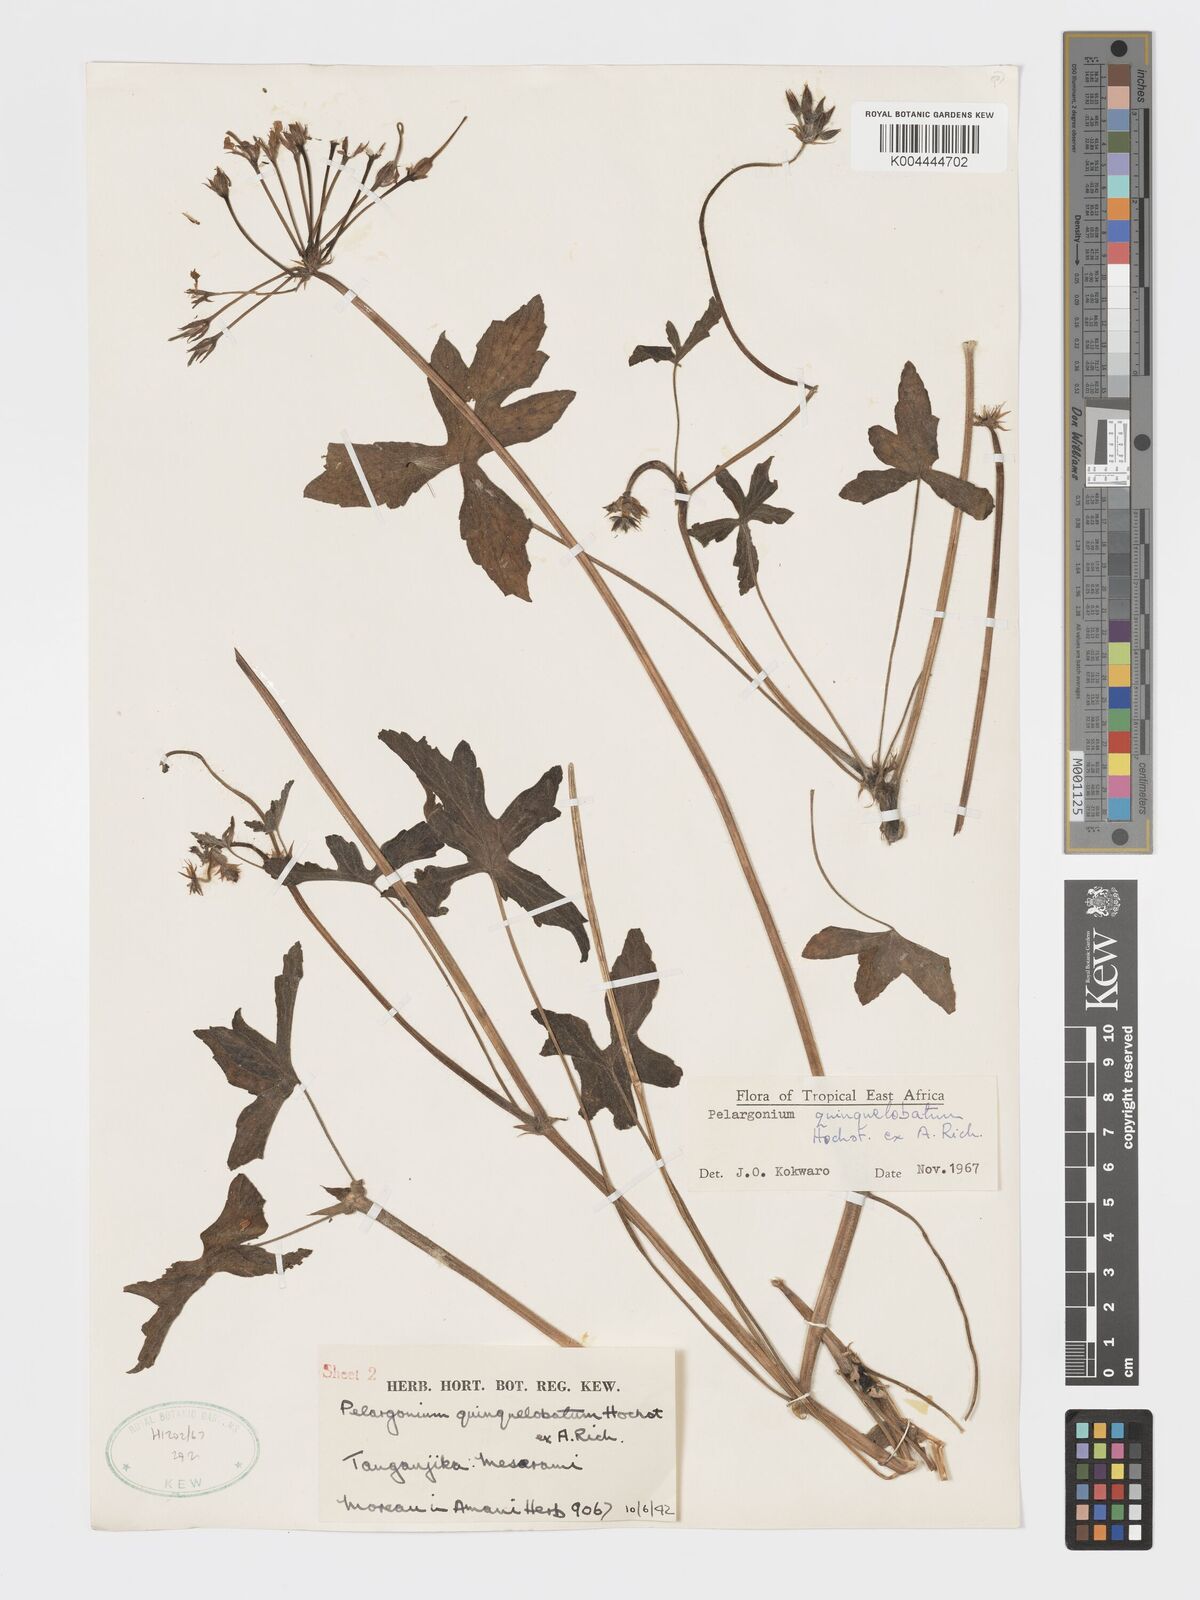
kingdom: Plantae
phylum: Tracheophyta
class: Magnoliopsida
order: Geraniales
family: Geraniaceae
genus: Pelargonium
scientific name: Pelargonium quinquelobatum
